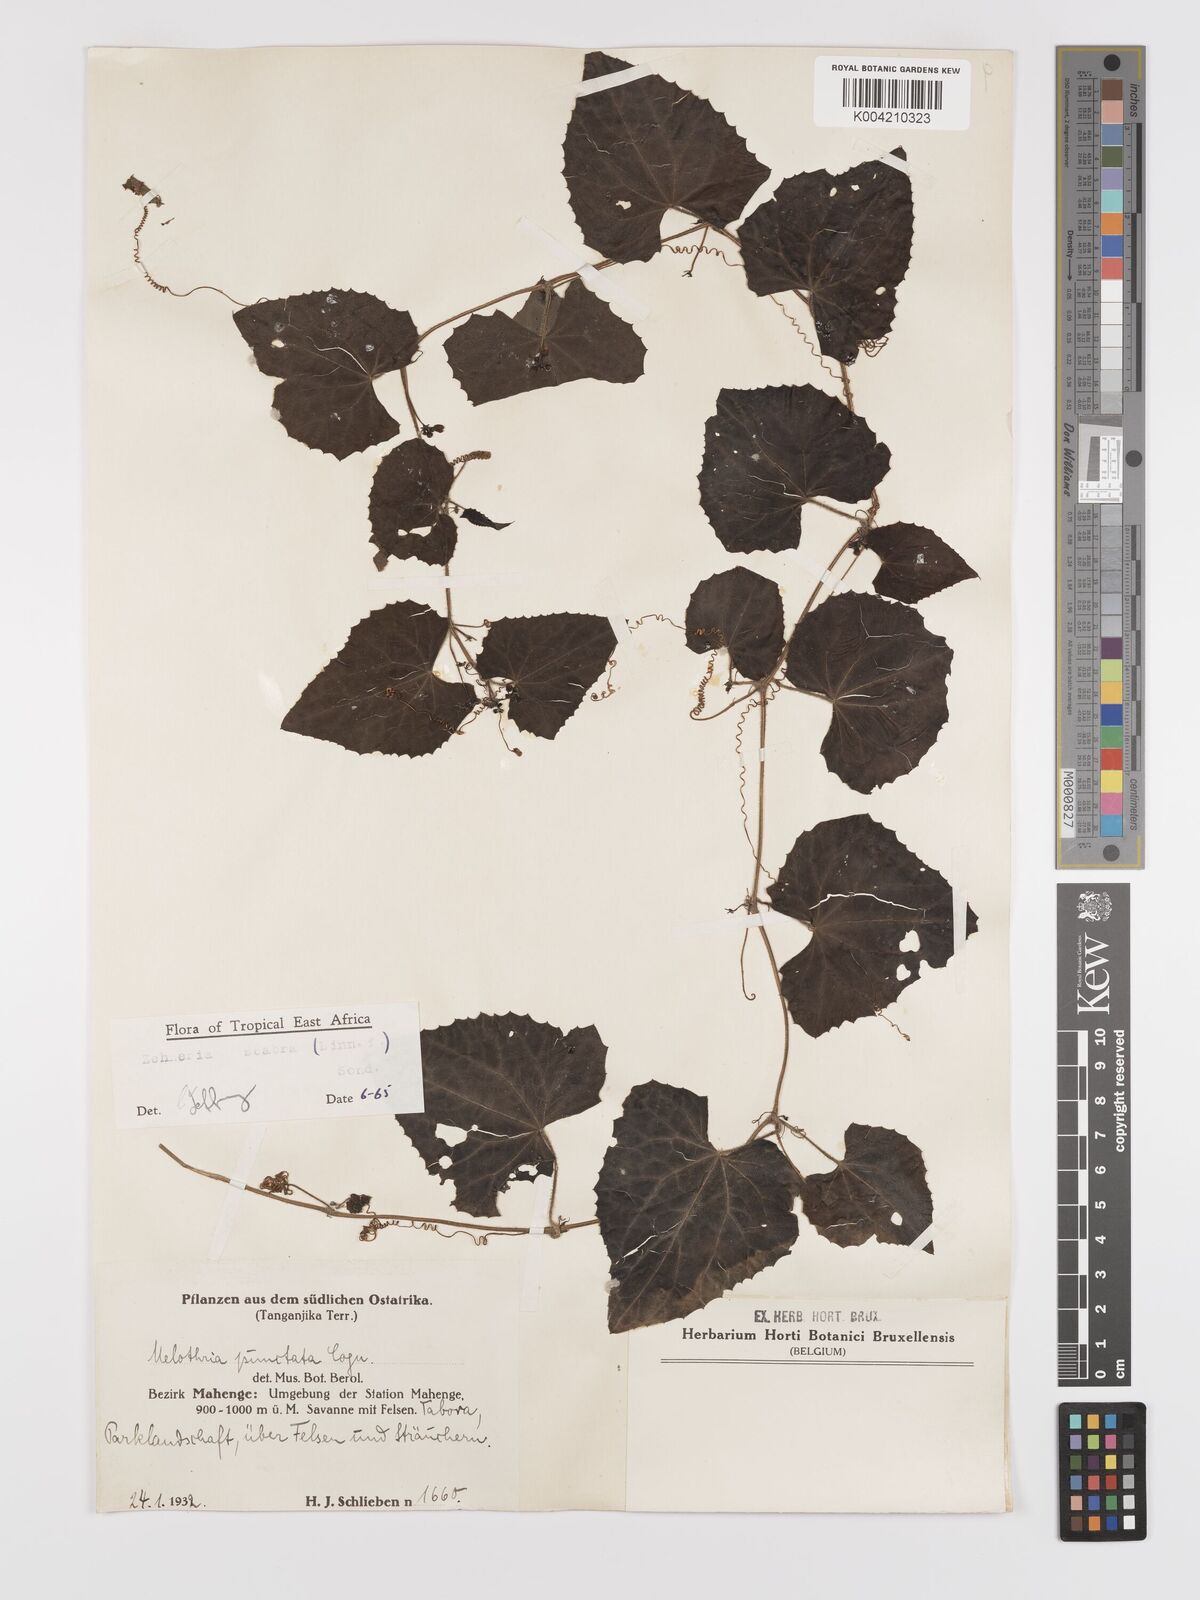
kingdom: Plantae
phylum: Tracheophyta
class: Magnoliopsida
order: Cucurbitales
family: Cucurbitaceae
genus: Zehneria
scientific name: Zehneria scabra
